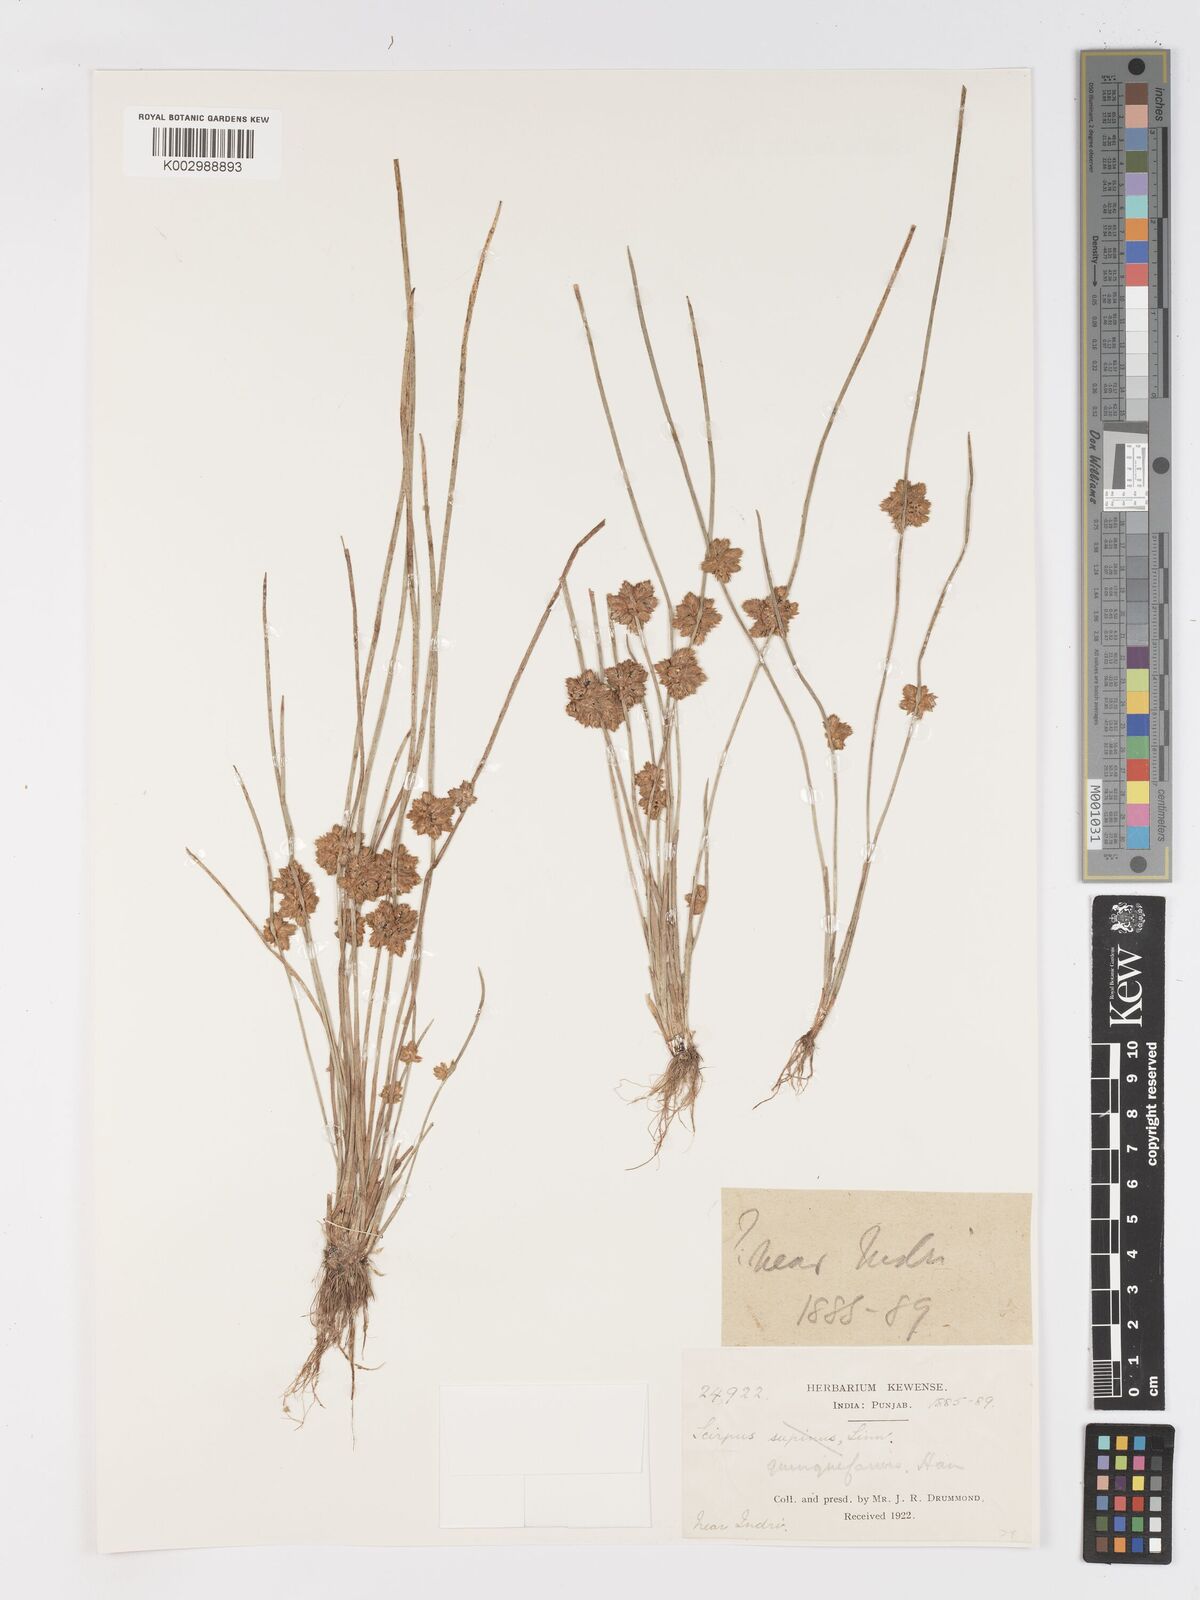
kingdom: Plantae
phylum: Tracheophyta
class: Liliopsida
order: Poales
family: Cyperaceae
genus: Schoenoplectiella
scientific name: Schoenoplectiella roylei
